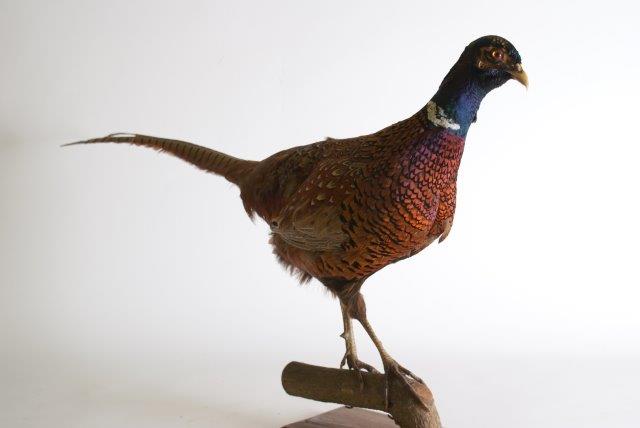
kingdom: Animalia
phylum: Chordata
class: Aves
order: Galliformes
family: Phasianidae
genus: Phasianus
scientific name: Phasianus colchicus
